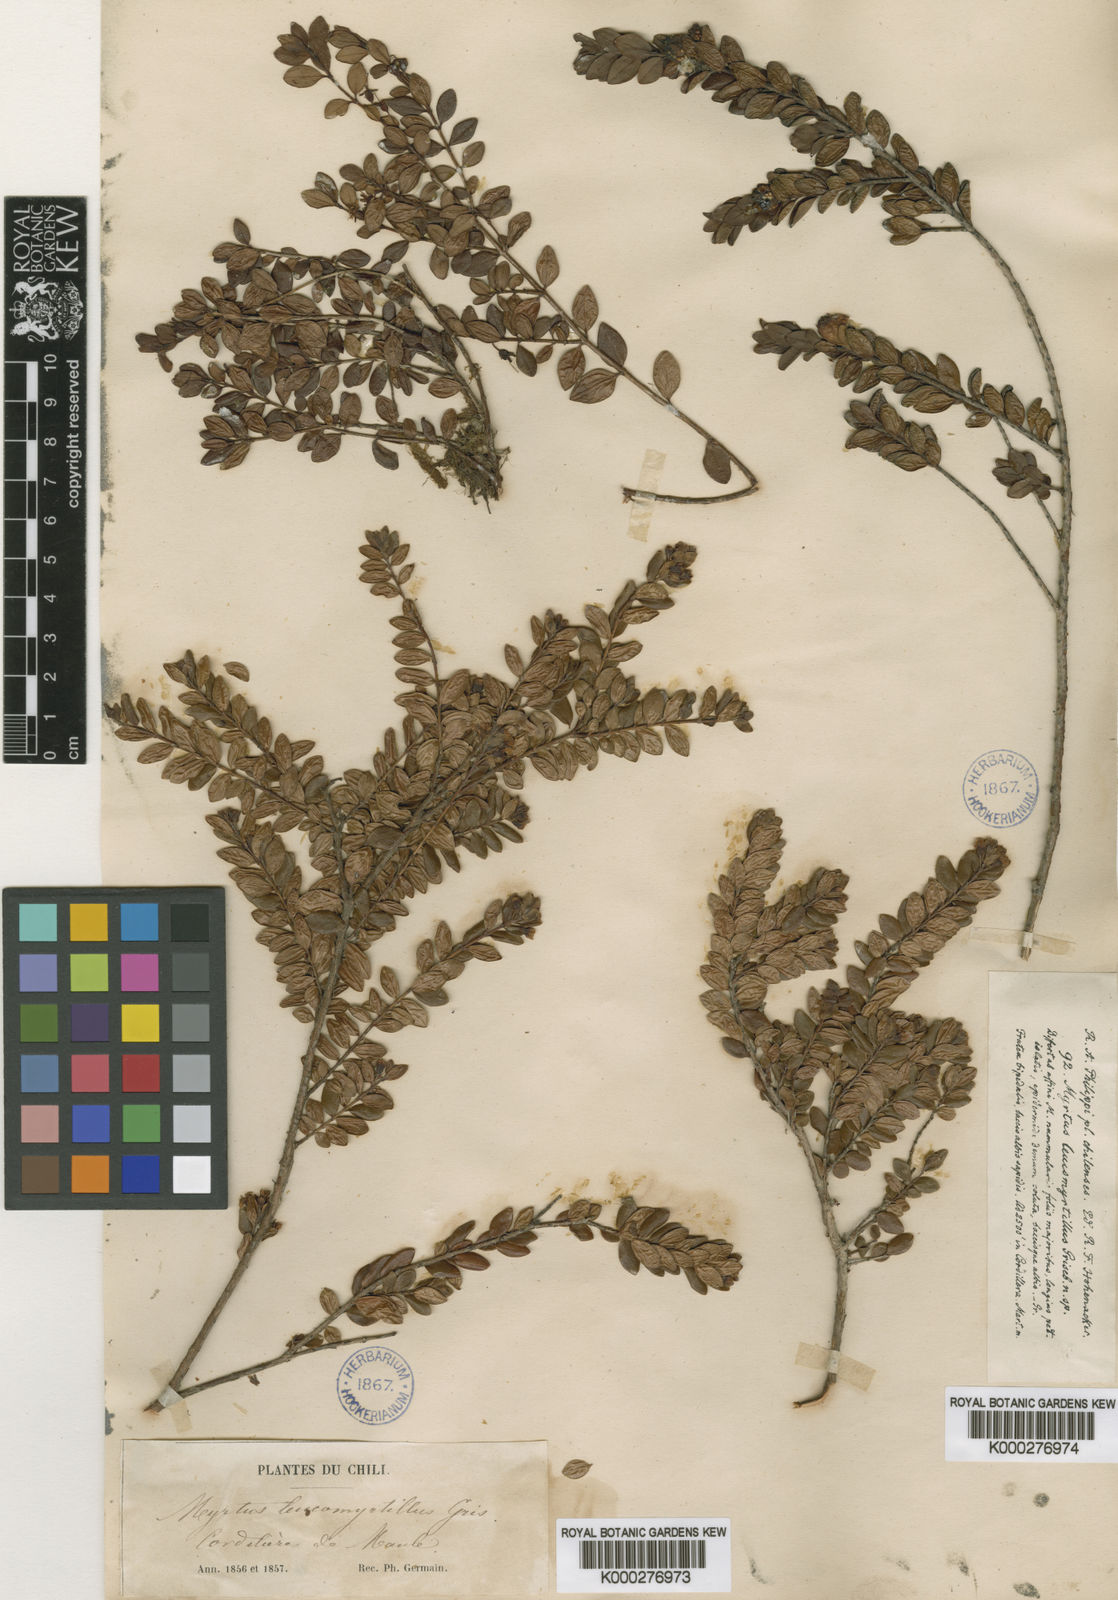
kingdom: Plantae
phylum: Tracheophyta
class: Magnoliopsida
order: Myrtales
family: Myrtaceae
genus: Myrteola
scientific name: Myrteola nummularia
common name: Cranberry-myrtle
